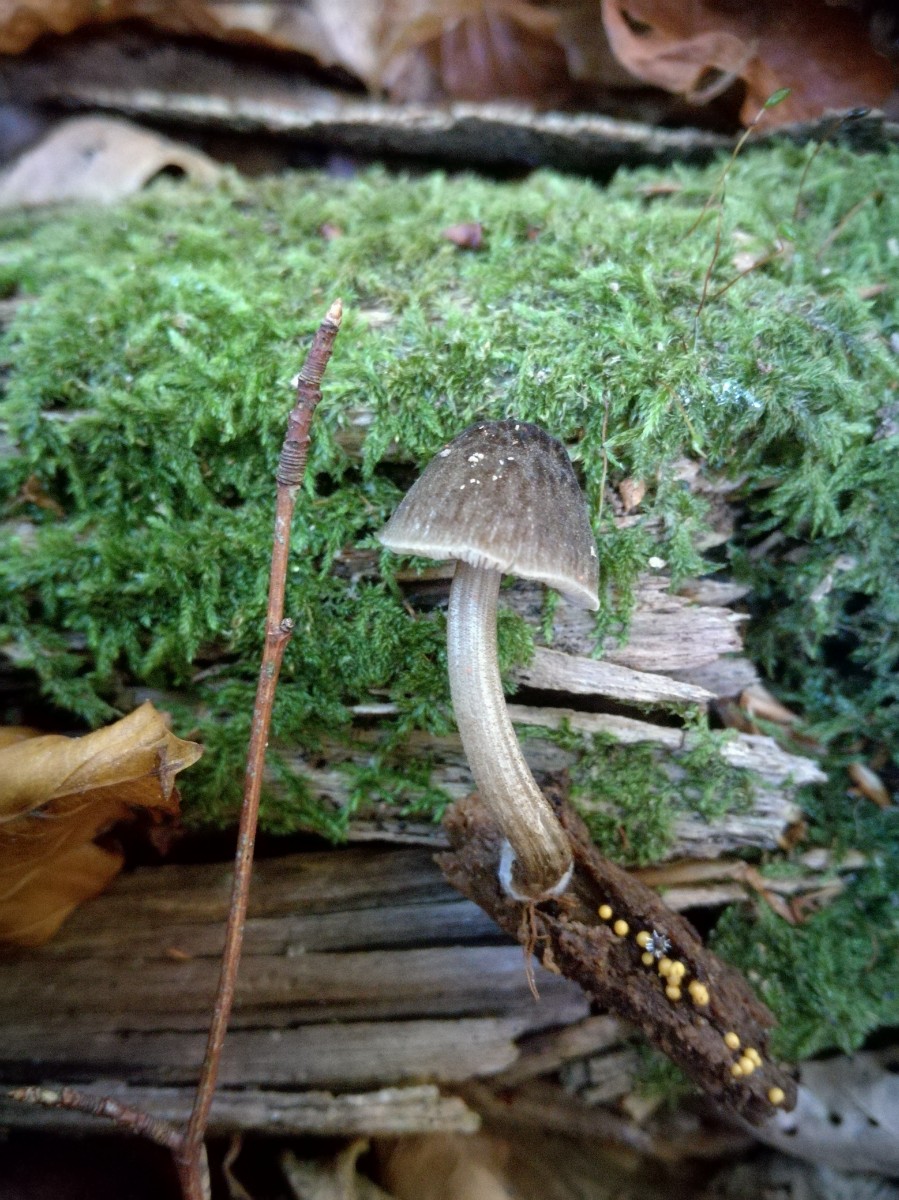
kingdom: Fungi
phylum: Basidiomycota
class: Agaricomycetes
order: Agaricales
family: Pluteaceae
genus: Pluteus
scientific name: Pluteus plautus
